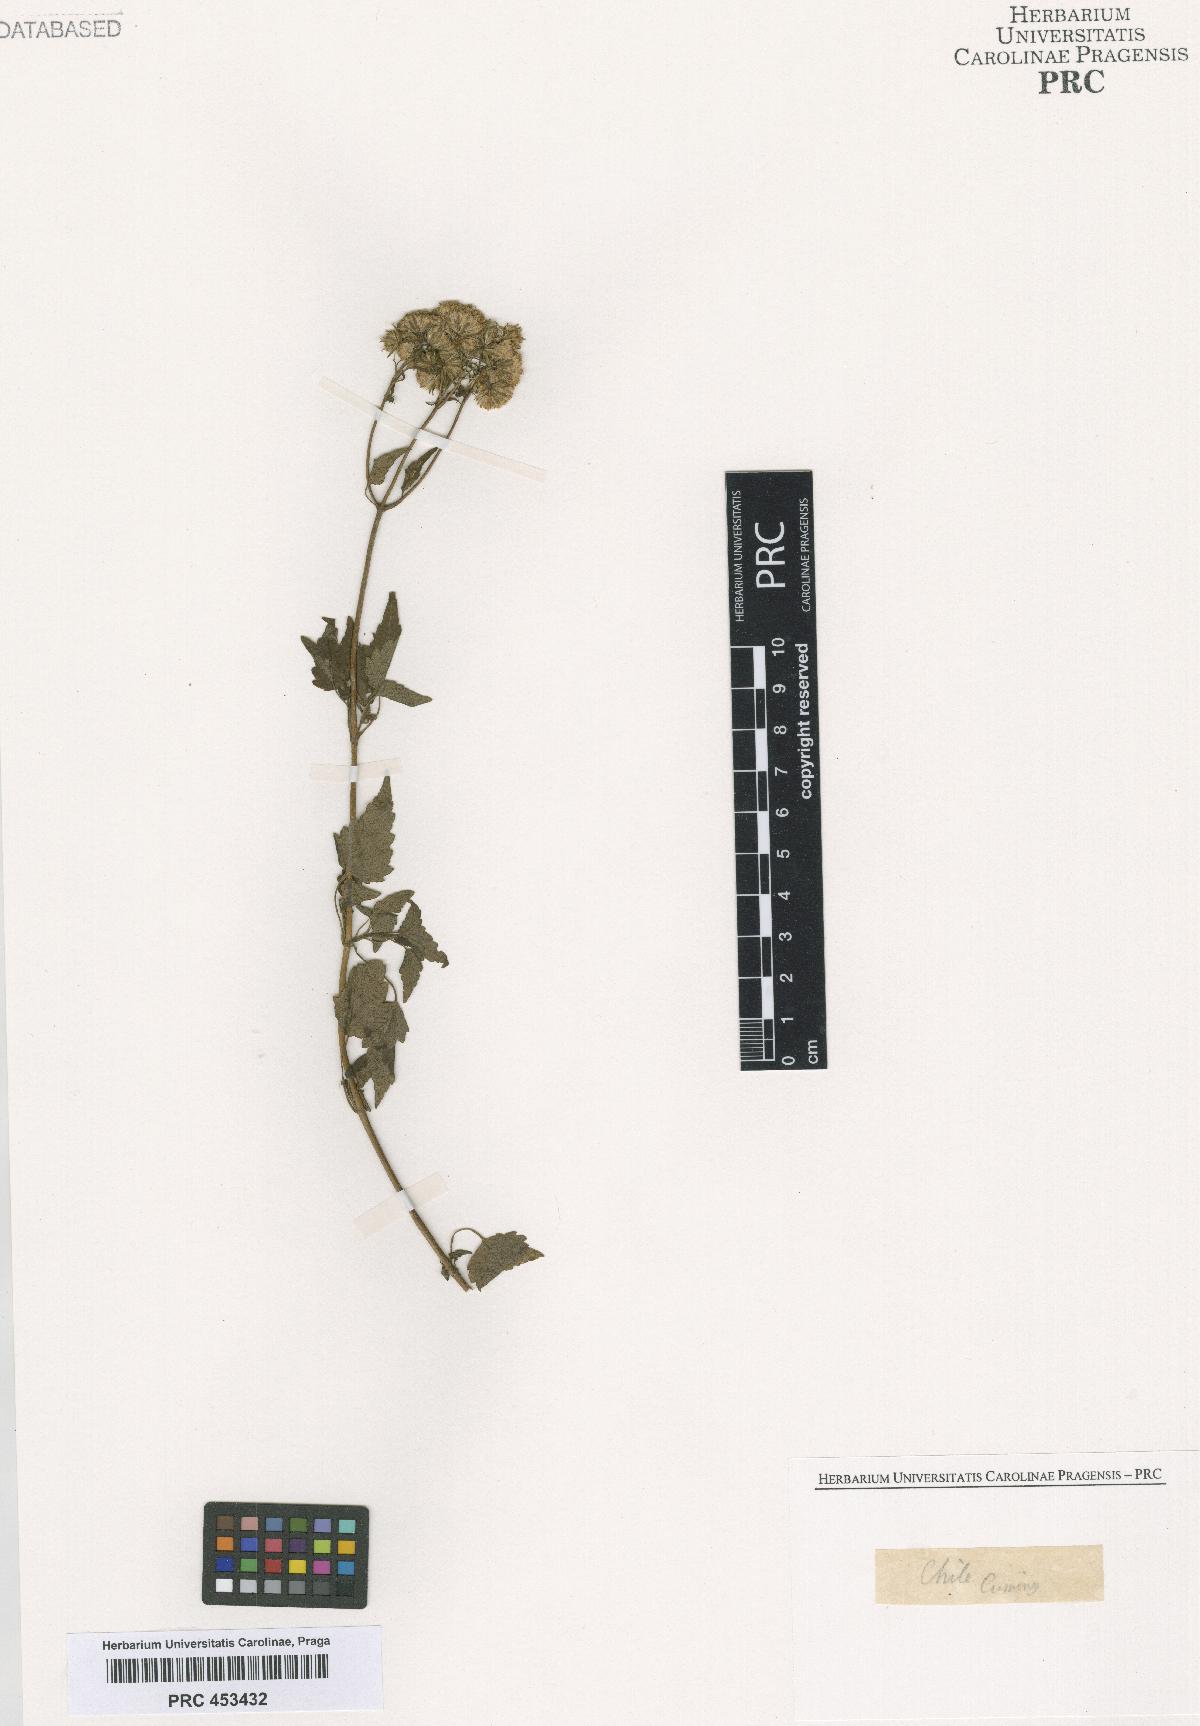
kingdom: Plantae
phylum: Tracheophyta
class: Magnoliopsida
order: Asterales
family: Asteraceae
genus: Eupatorium
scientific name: Eupatorium
